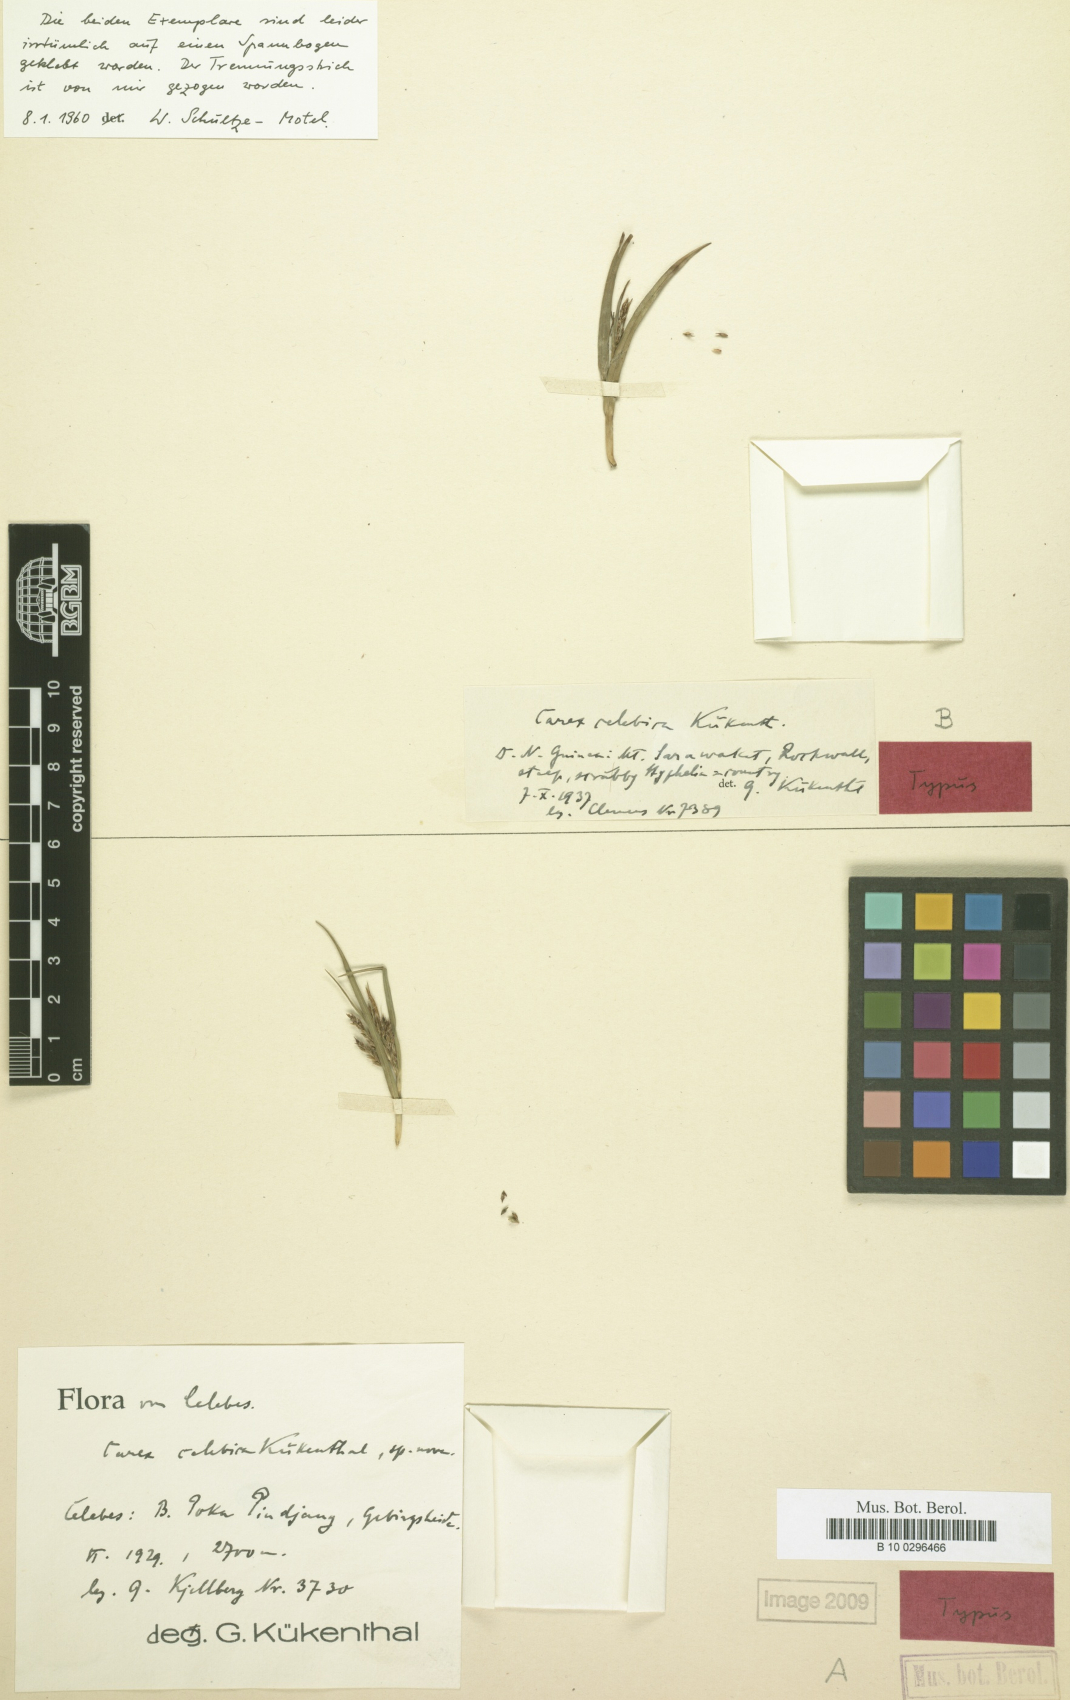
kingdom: Plantae
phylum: Tracheophyta
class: Liliopsida
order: Poales
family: Cyperaceae
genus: Carex
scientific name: Carex celebica
